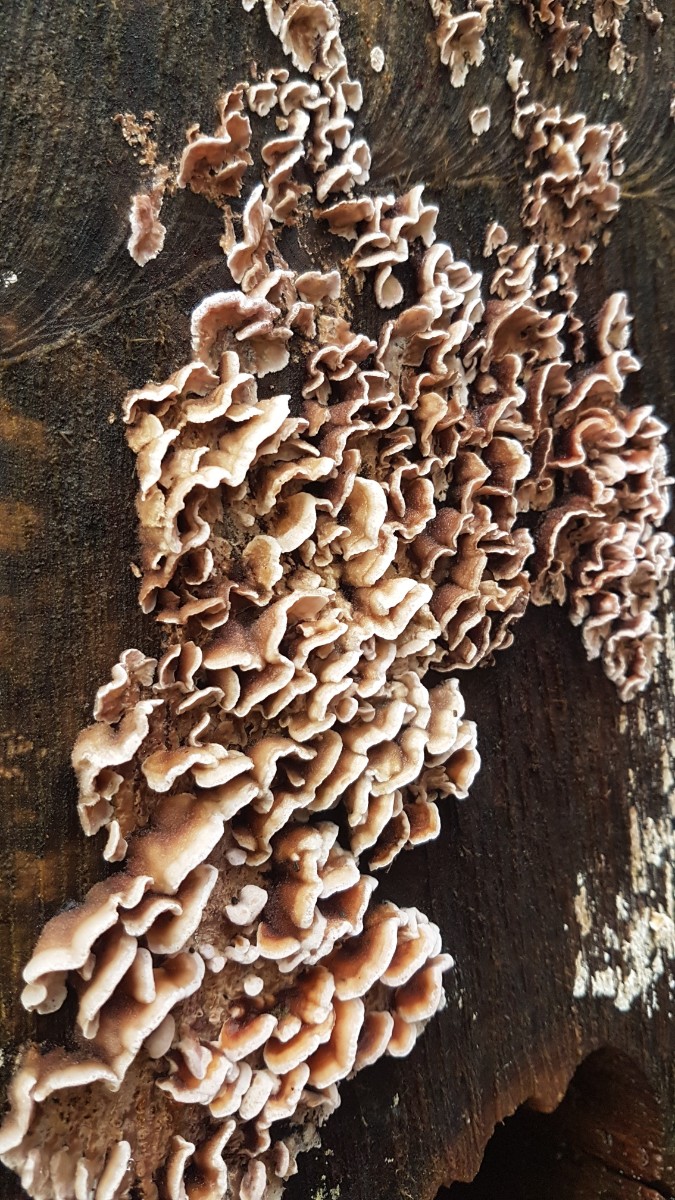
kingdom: Fungi
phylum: Basidiomycota
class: Agaricomycetes
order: Russulales
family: Stereaceae
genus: Stereum
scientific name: Stereum hirsutum
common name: håret lædersvamp
